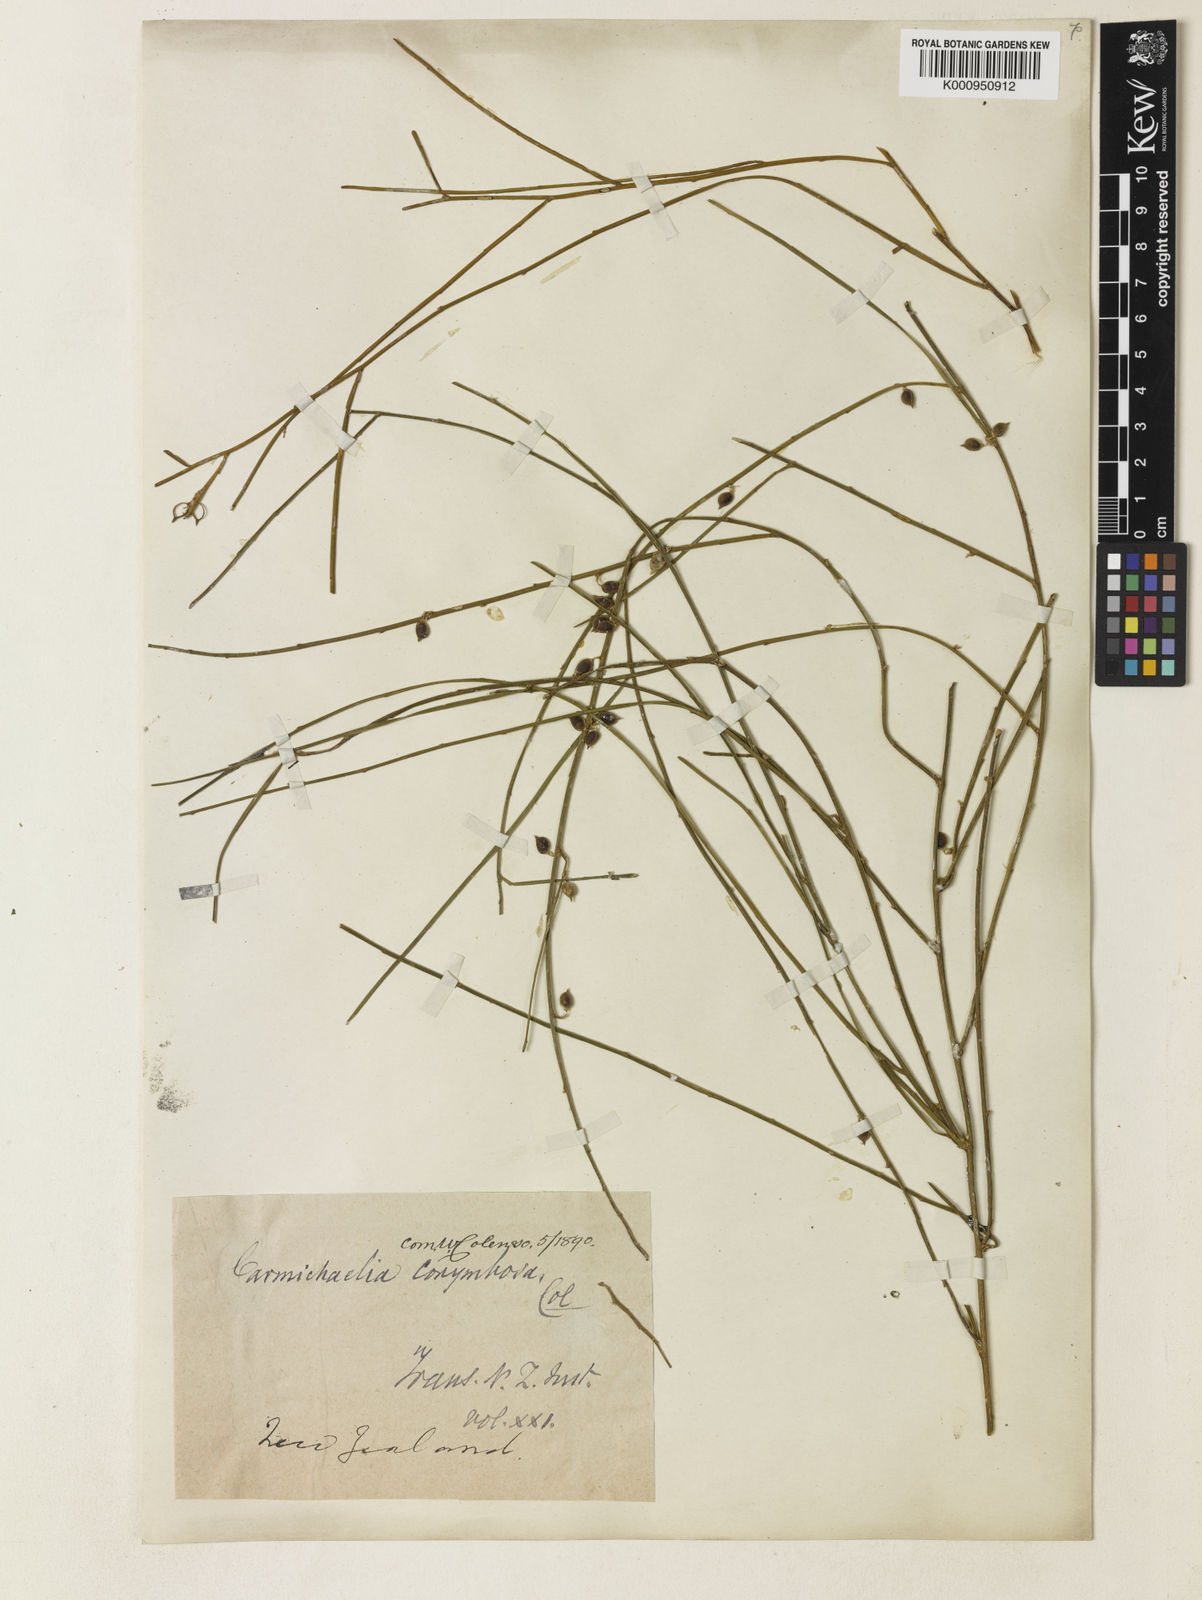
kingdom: Plantae
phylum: Tracheophyta
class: Magnoliopsida
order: Fabales
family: Fabaceae
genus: Carmichaelia
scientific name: Carmichaelia australis
